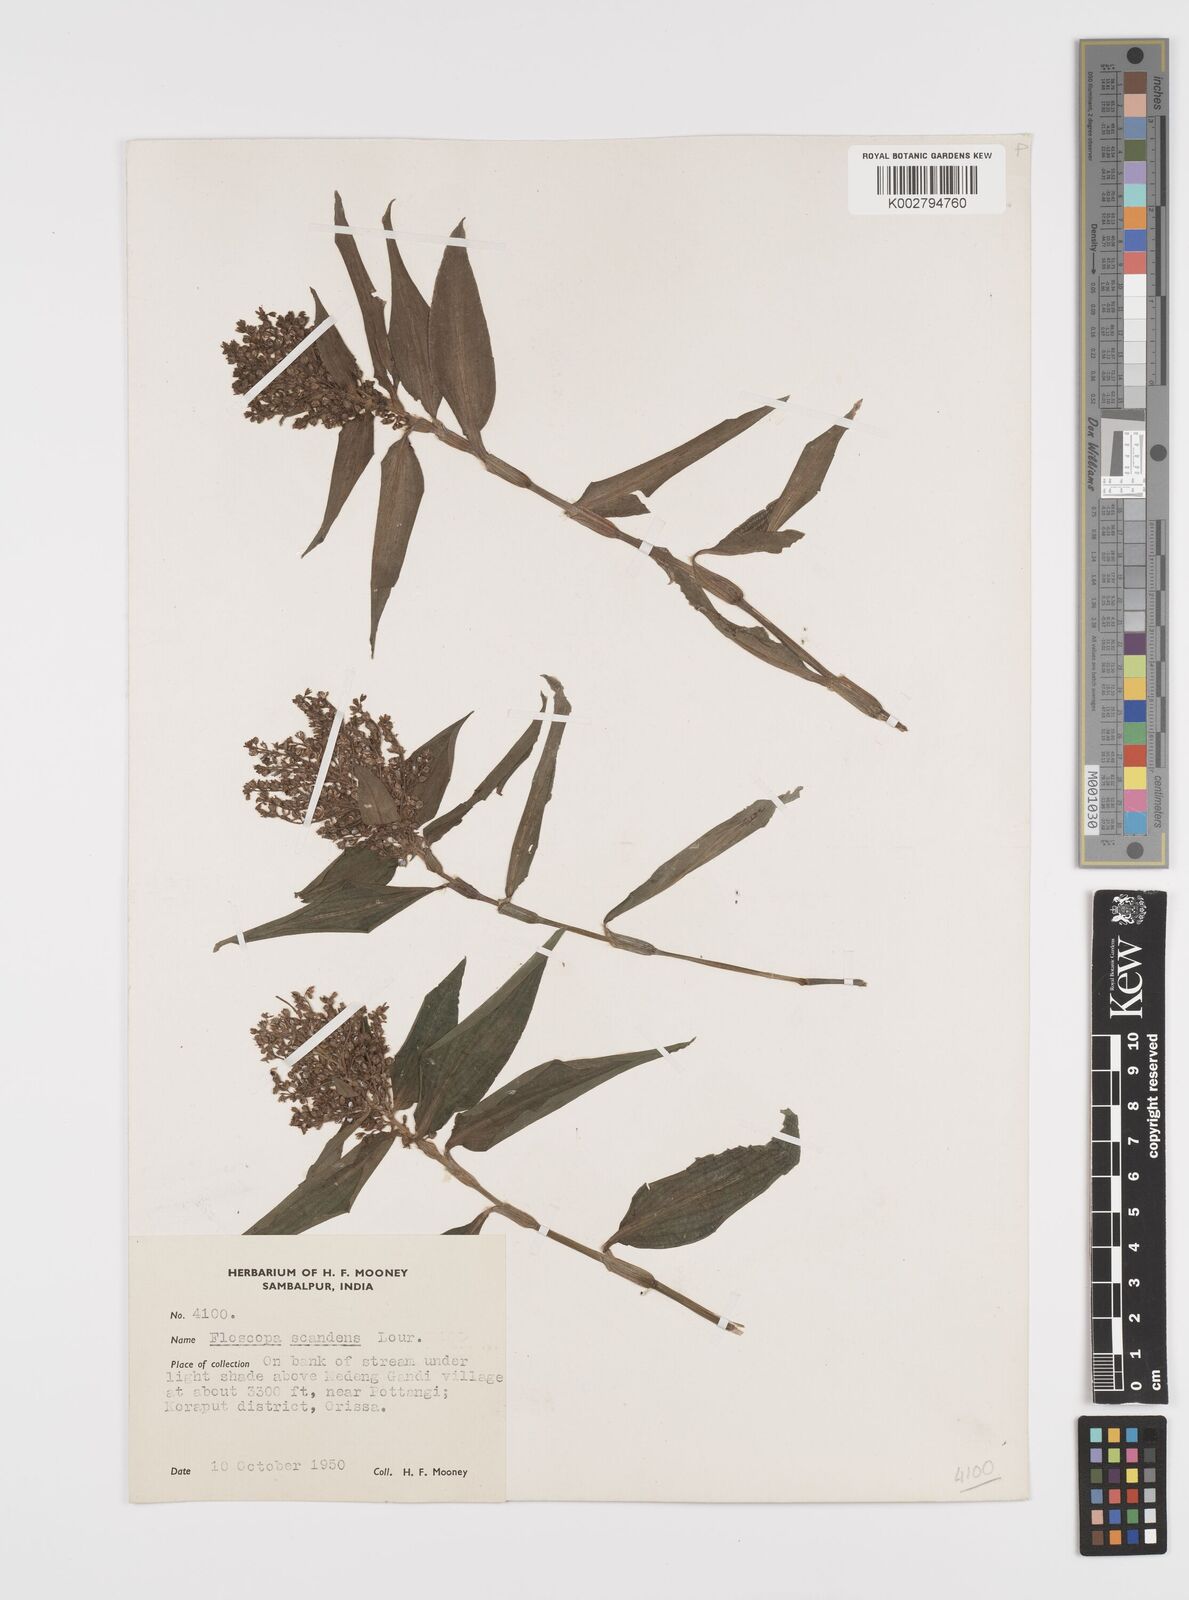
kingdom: Plantae
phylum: Tracheophyta
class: Liliopsida
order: Commelinales
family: Commelinaceae
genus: Floscopa
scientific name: Floscopa scandens
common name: Climbing flower cup
